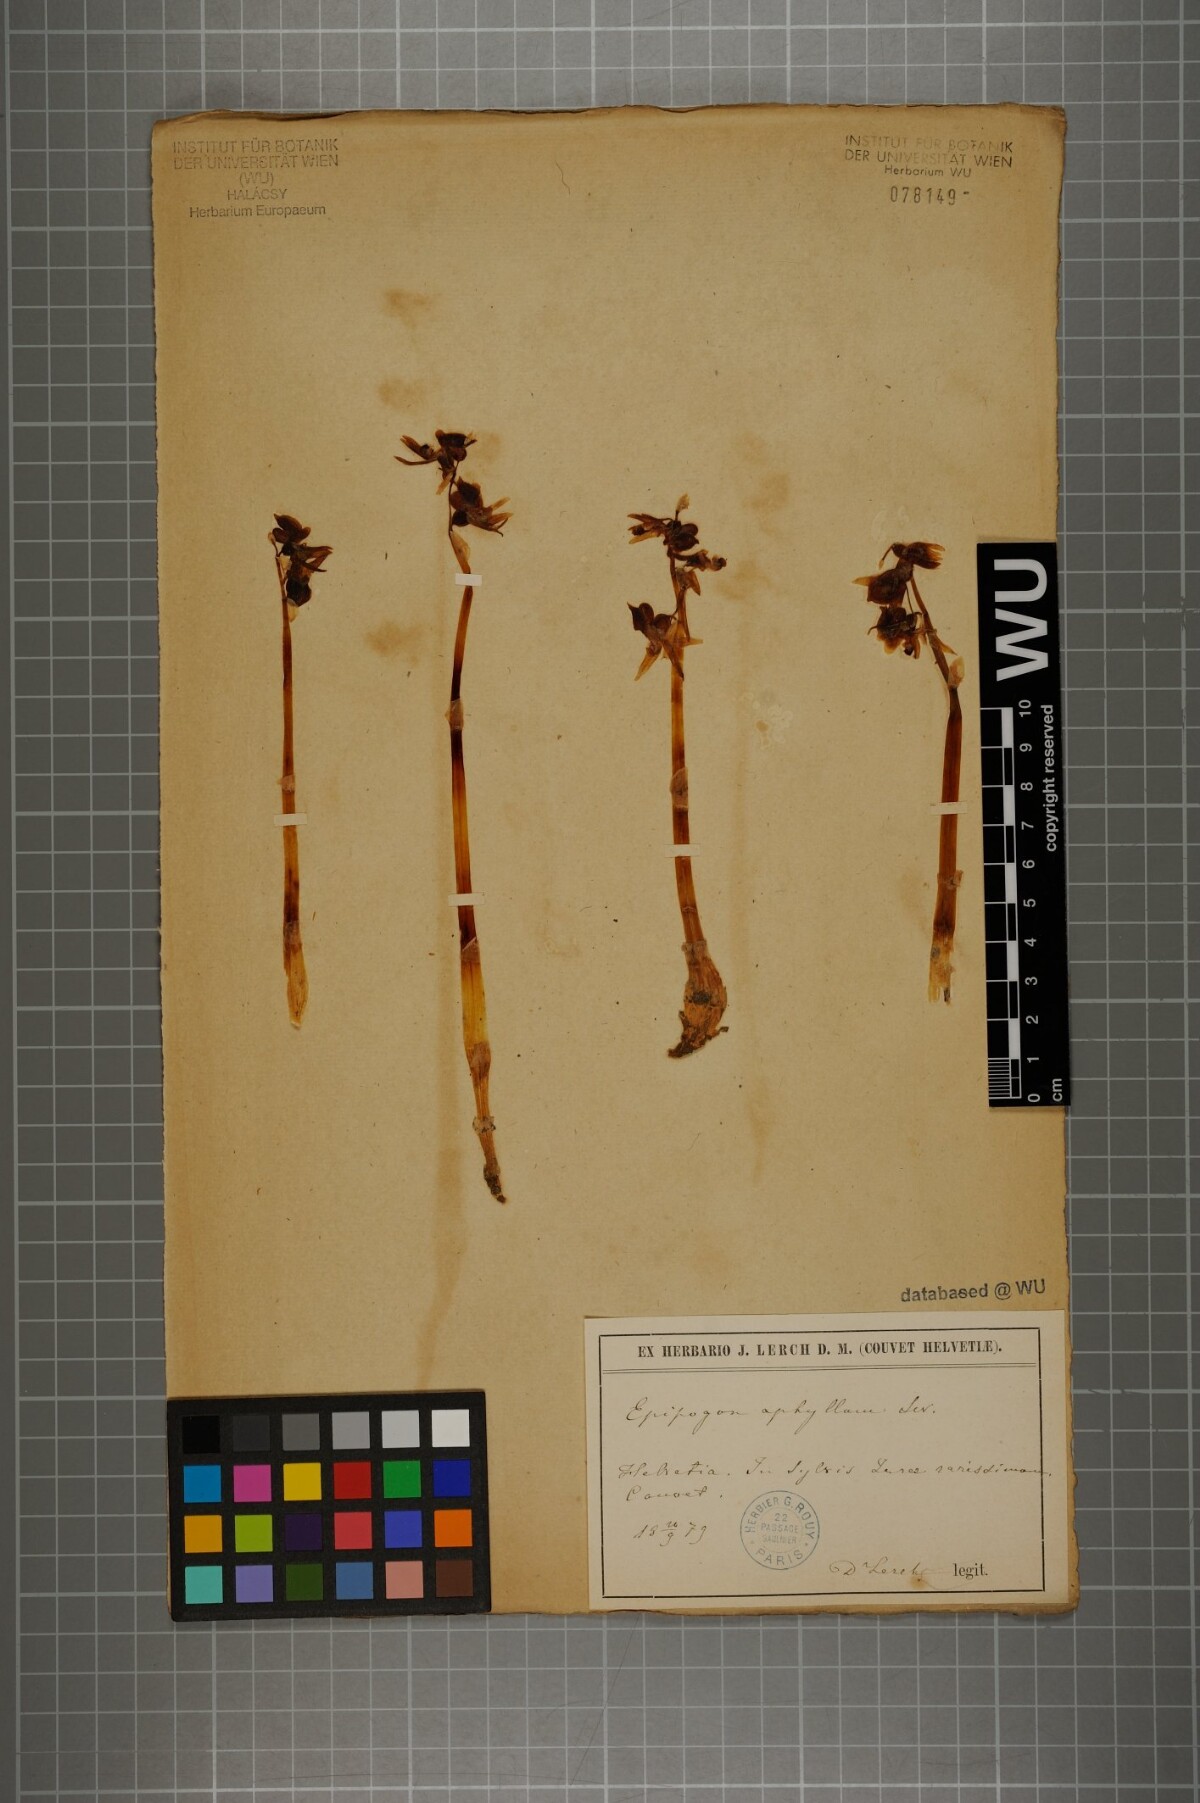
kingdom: Plantae
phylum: Tracheophyta
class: Liliopsida
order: Asparagales
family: Orchidaceae
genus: Epipogium
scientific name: Epipogium aphyllum
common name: Ghost orchid
